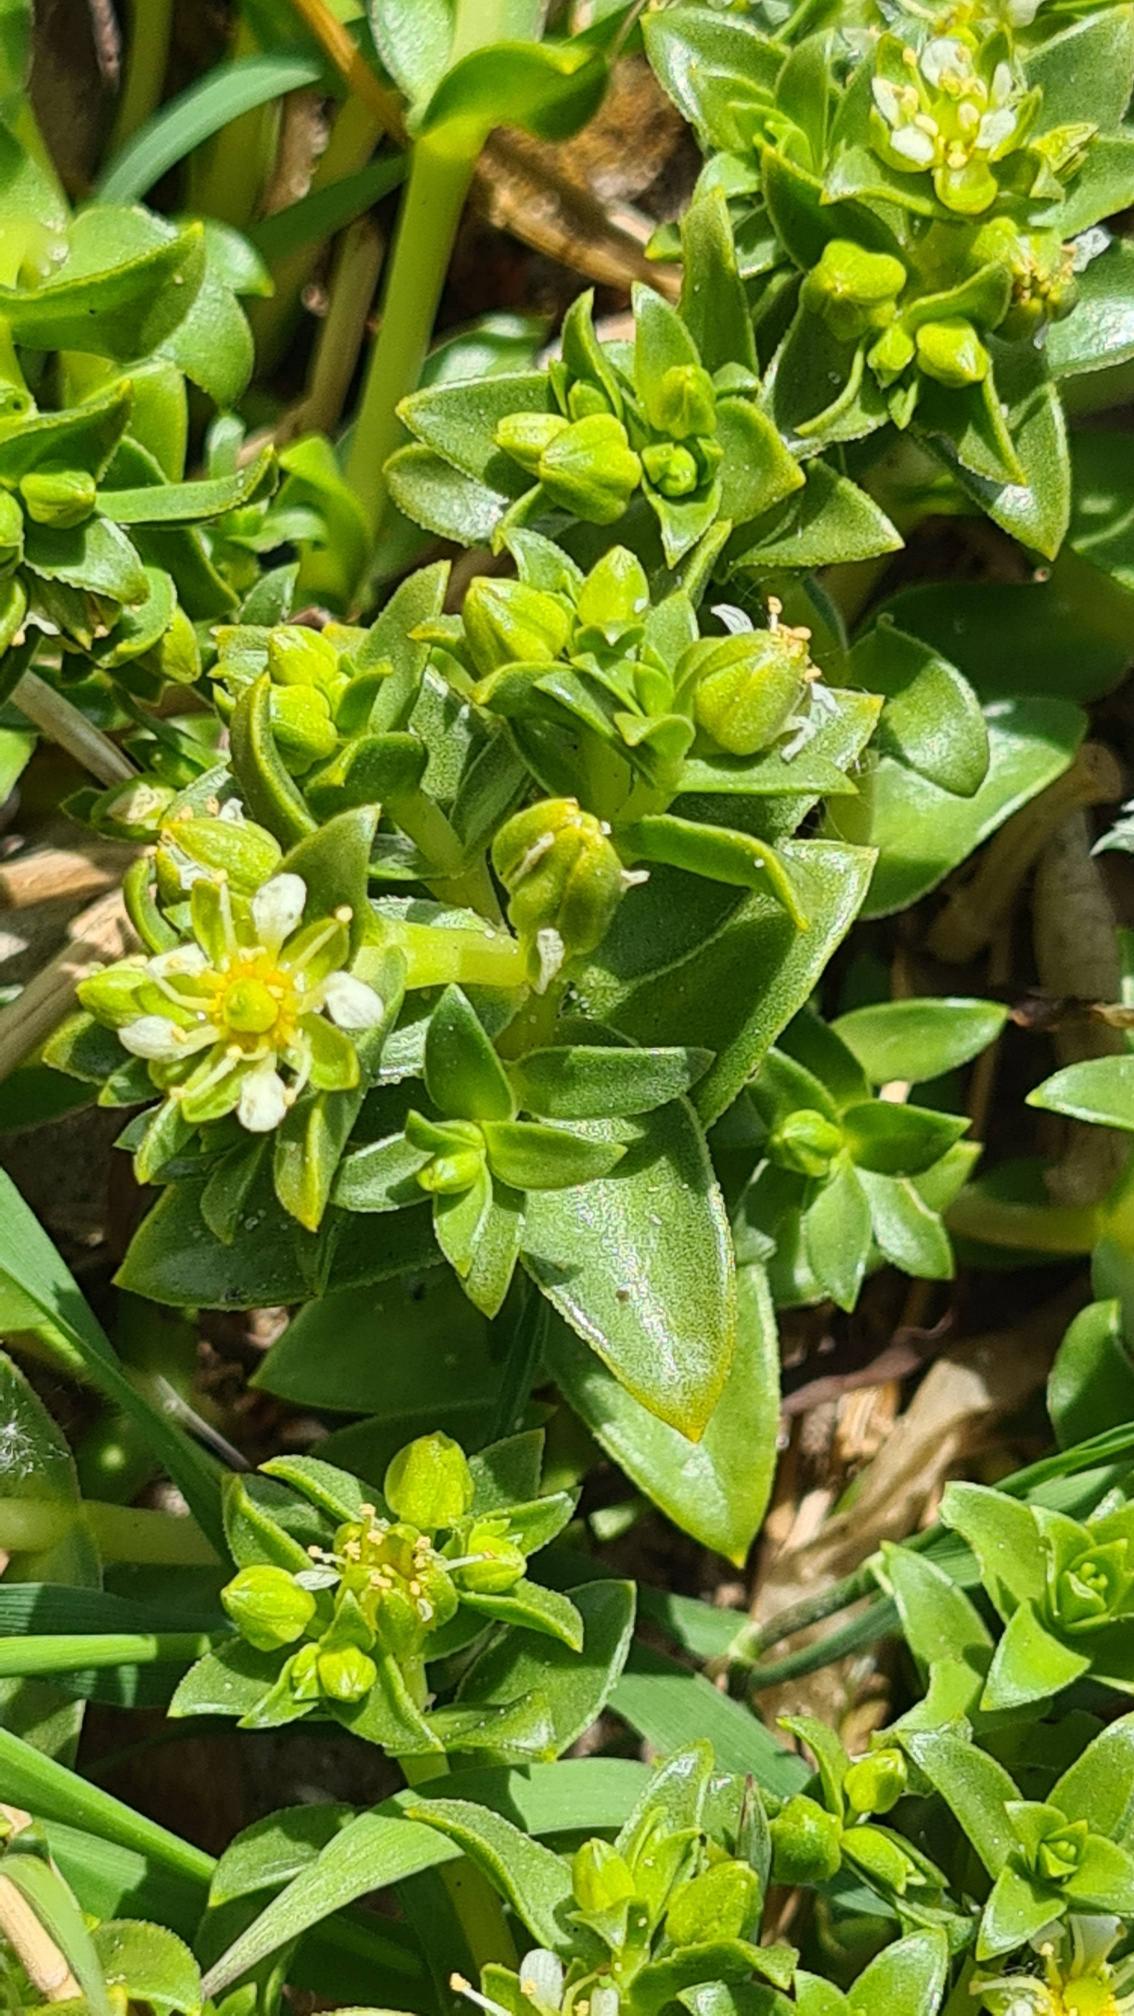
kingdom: Plantae
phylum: Tracheophyta
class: Magnoliopsida
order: Caryophyllales
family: Caryophyllaceae
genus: Honckenya
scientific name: Honckenya peploides
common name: Strandarve
